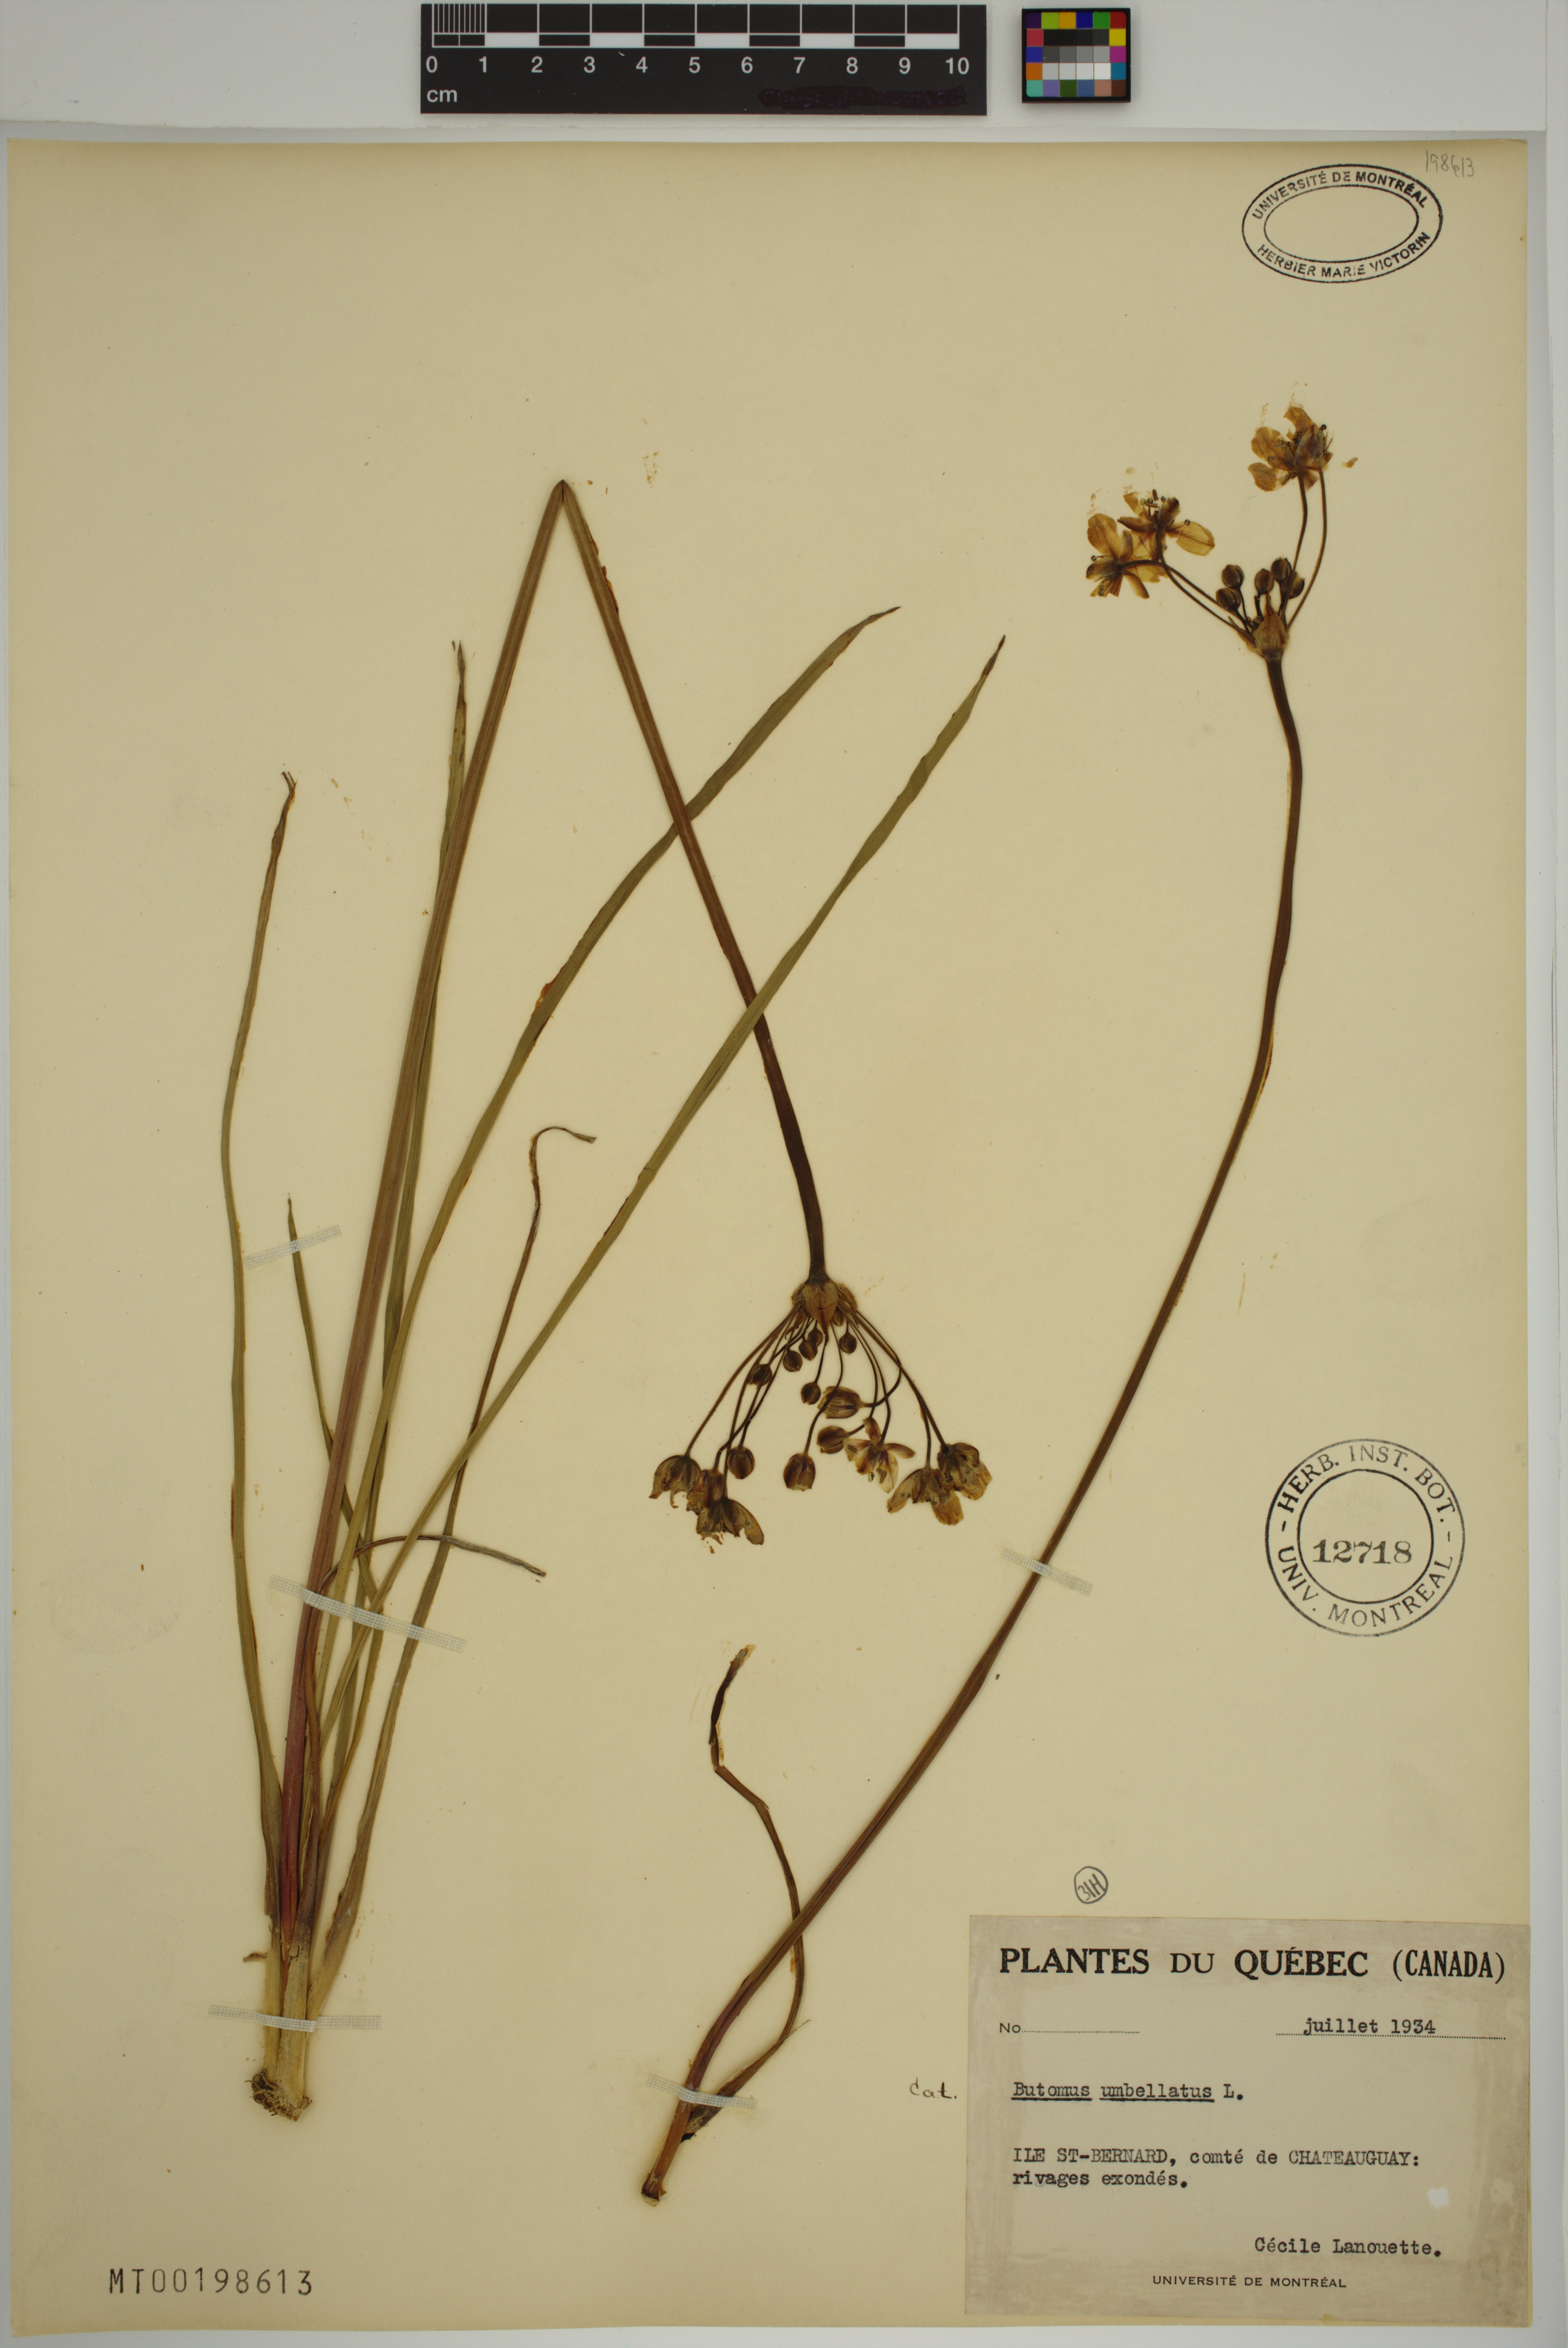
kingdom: Plantae
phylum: Tracheophyta
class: Liliopsida
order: Alismatales
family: Butomaceae
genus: Butomus
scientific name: Butomus umbellatus
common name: Flowering-rush
